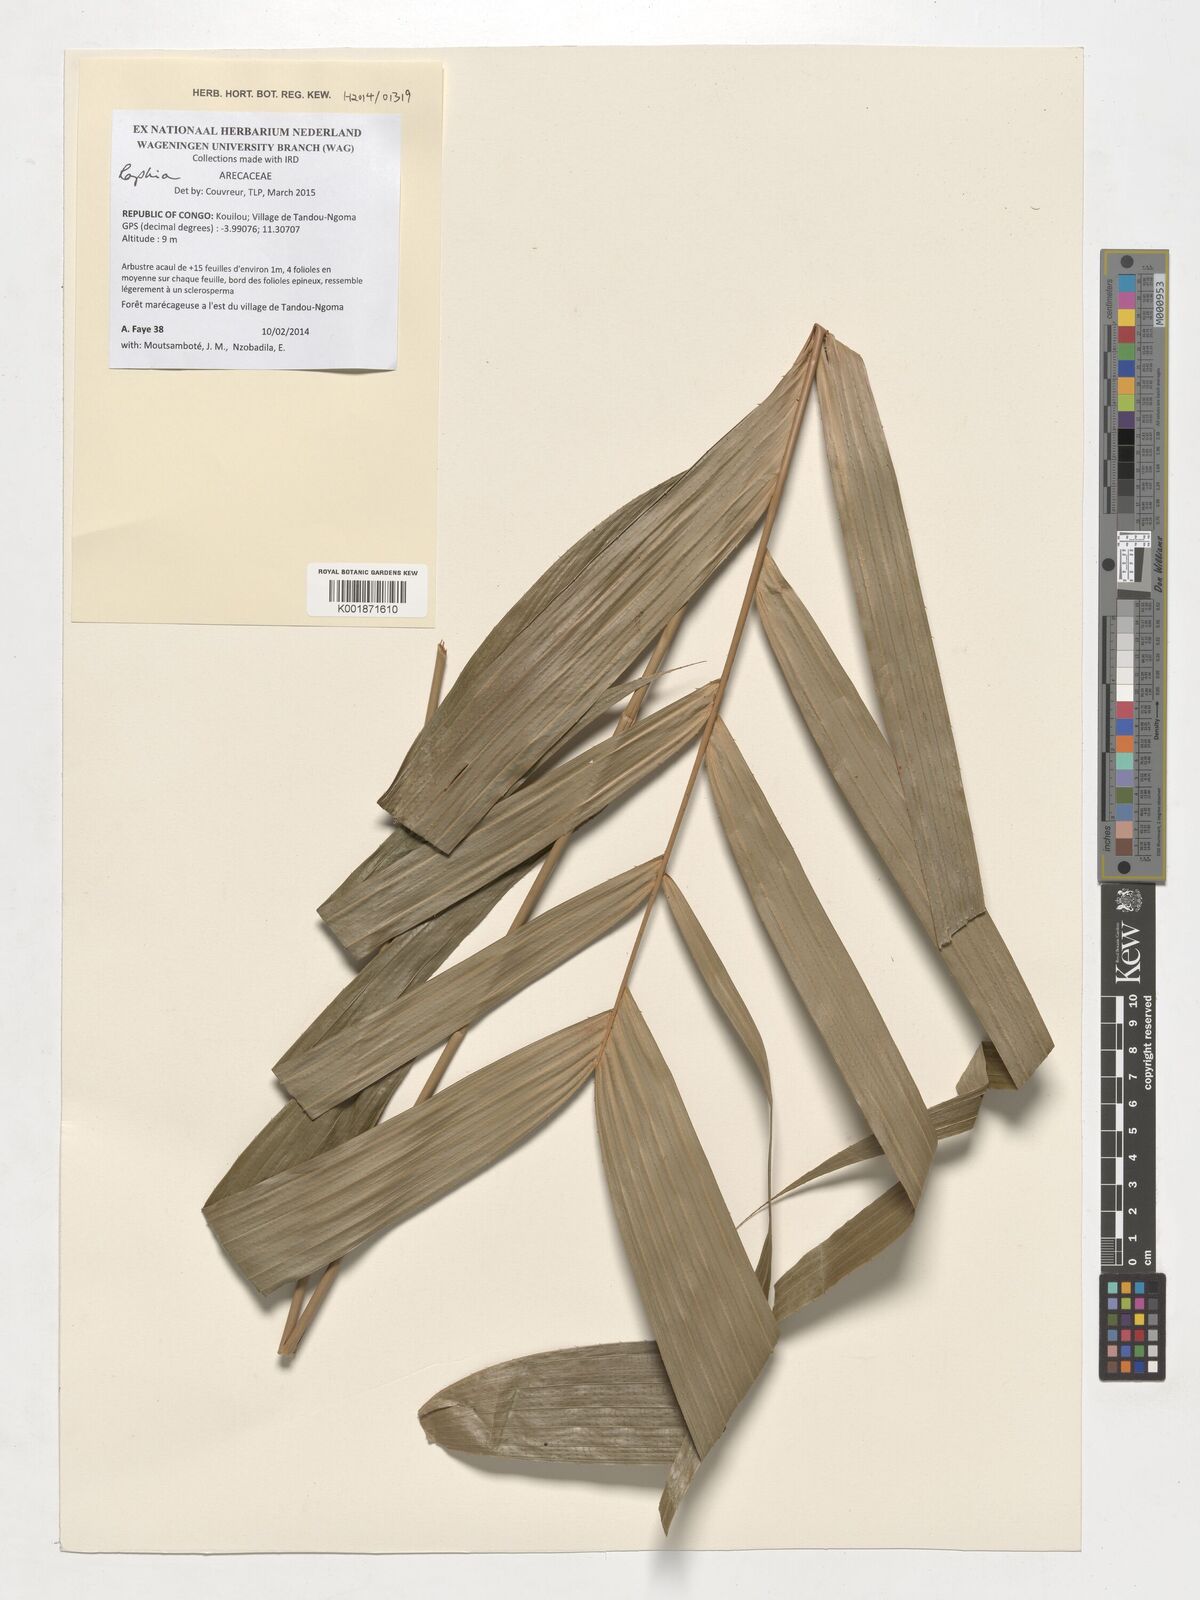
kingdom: Plantae
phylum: Tracheophyta
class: Liliopsida
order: Arecales
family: Arecaceae
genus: Raphia
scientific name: Raphia
